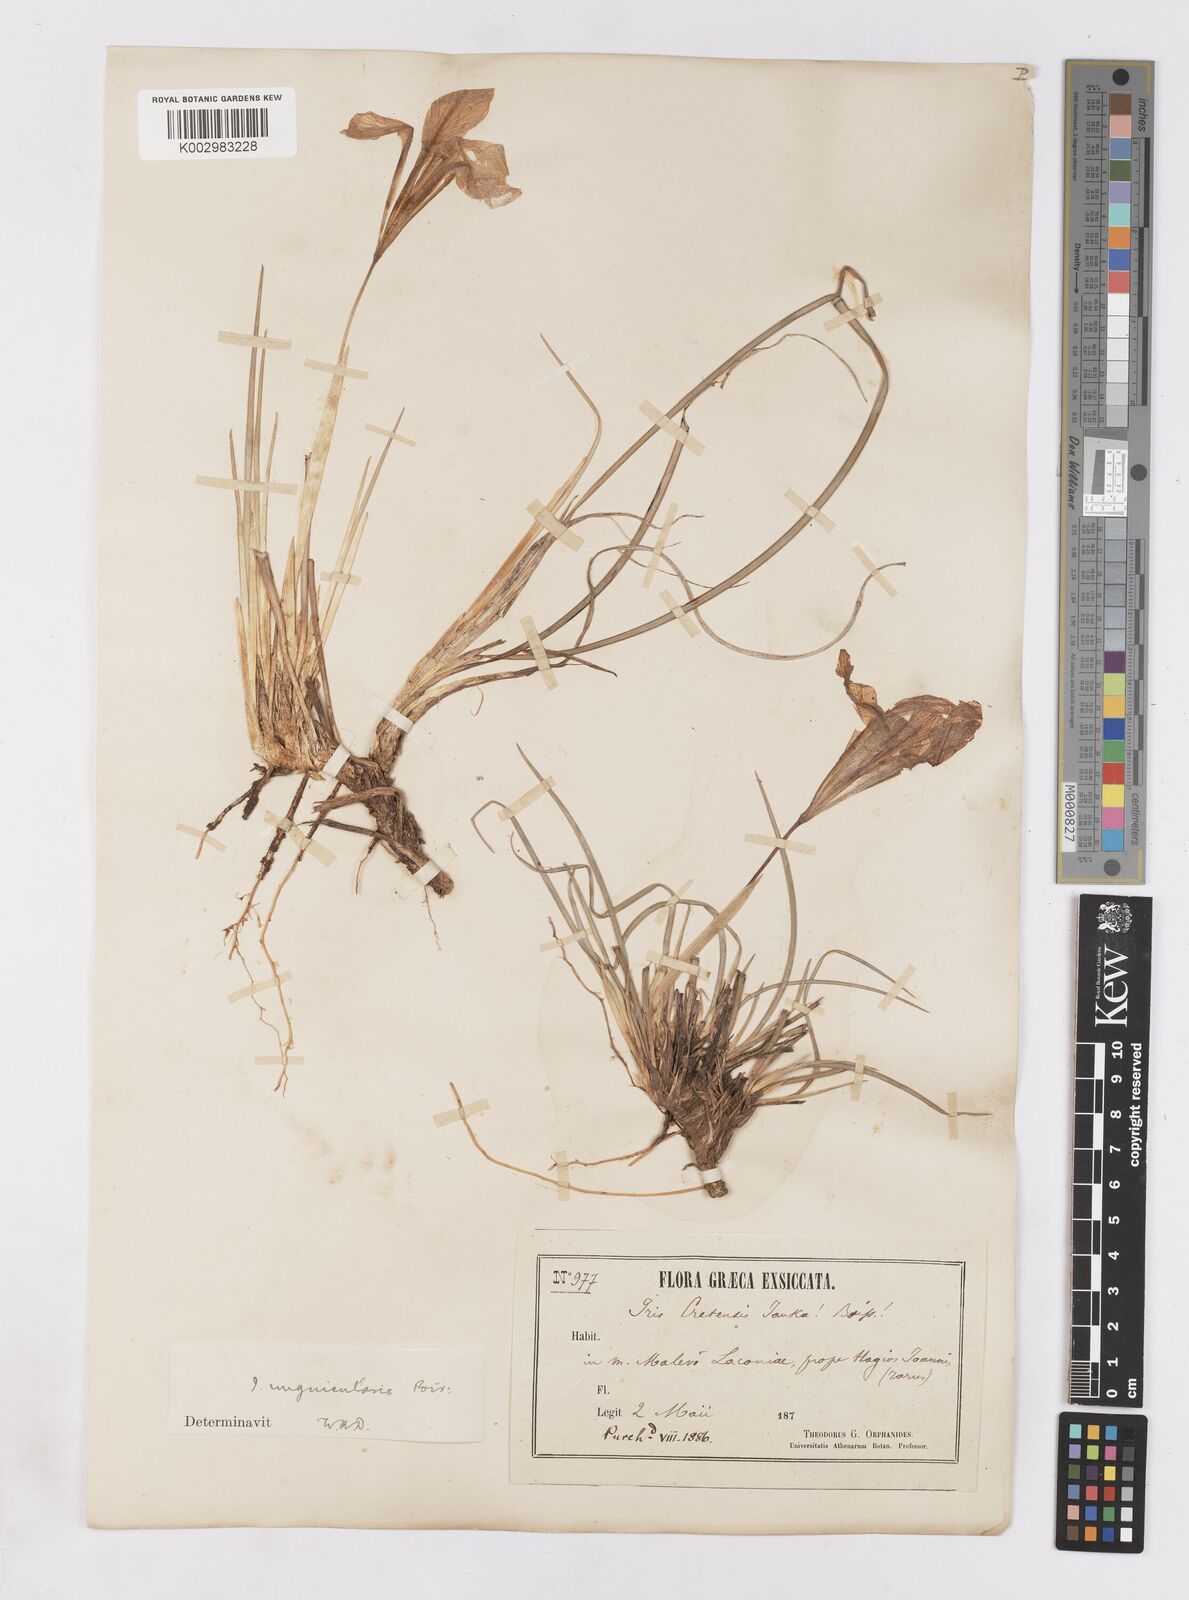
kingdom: Plantae
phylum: Tracheophyta
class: Liliopsida
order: Asparagales
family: Iridaceae
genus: Iris
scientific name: Iris unguicularis
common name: Algerian iris
